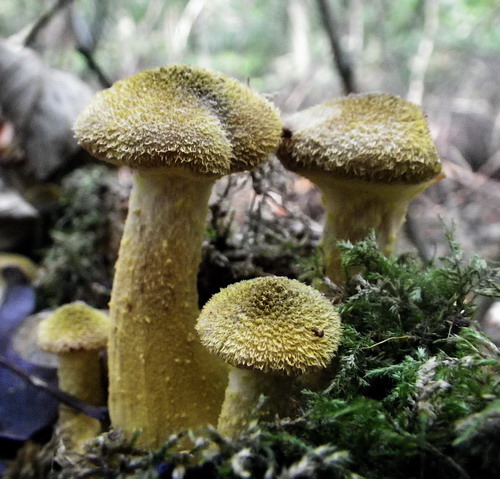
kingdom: Fungi
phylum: Basidiomycota
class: Agaricomycetes
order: Agaricales
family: Physalacriaceae
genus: Armillaria
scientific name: Armillaria lutea
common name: køllestokket honningsvamp
